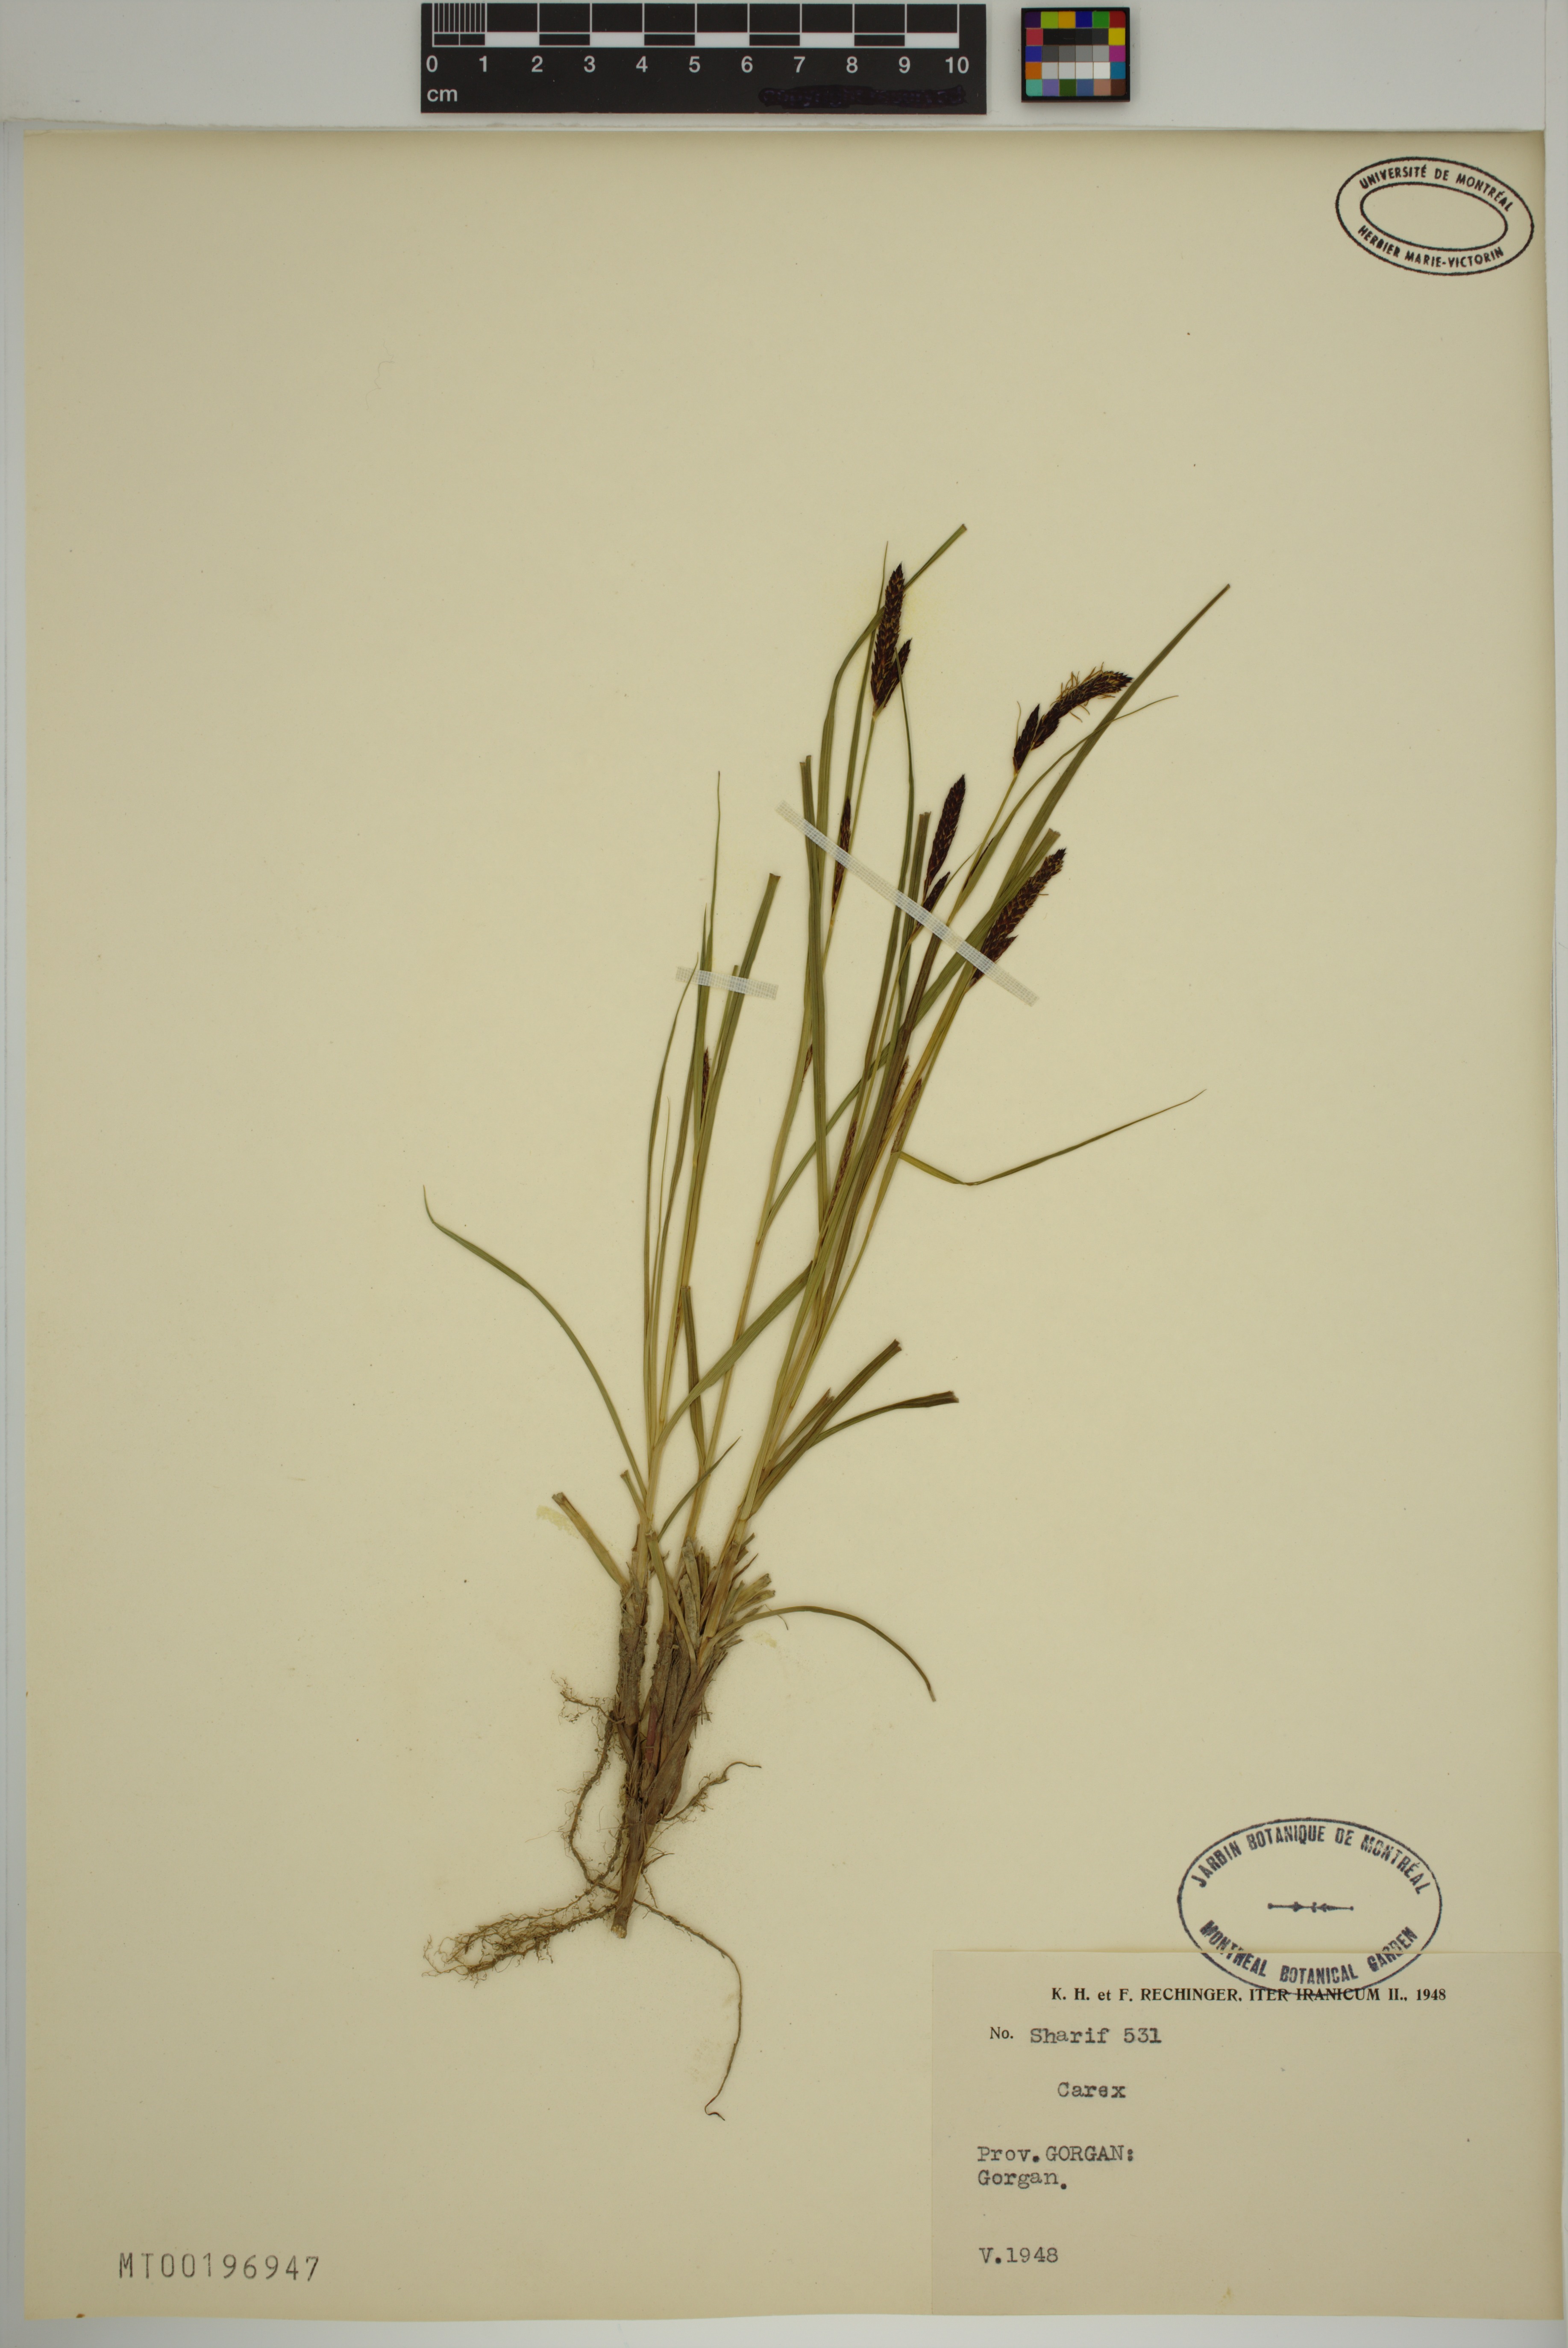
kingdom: Plantae
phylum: Tracheophyta
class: Liliopsida
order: Poales
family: Cyperaceae
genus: Carex
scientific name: Carex
